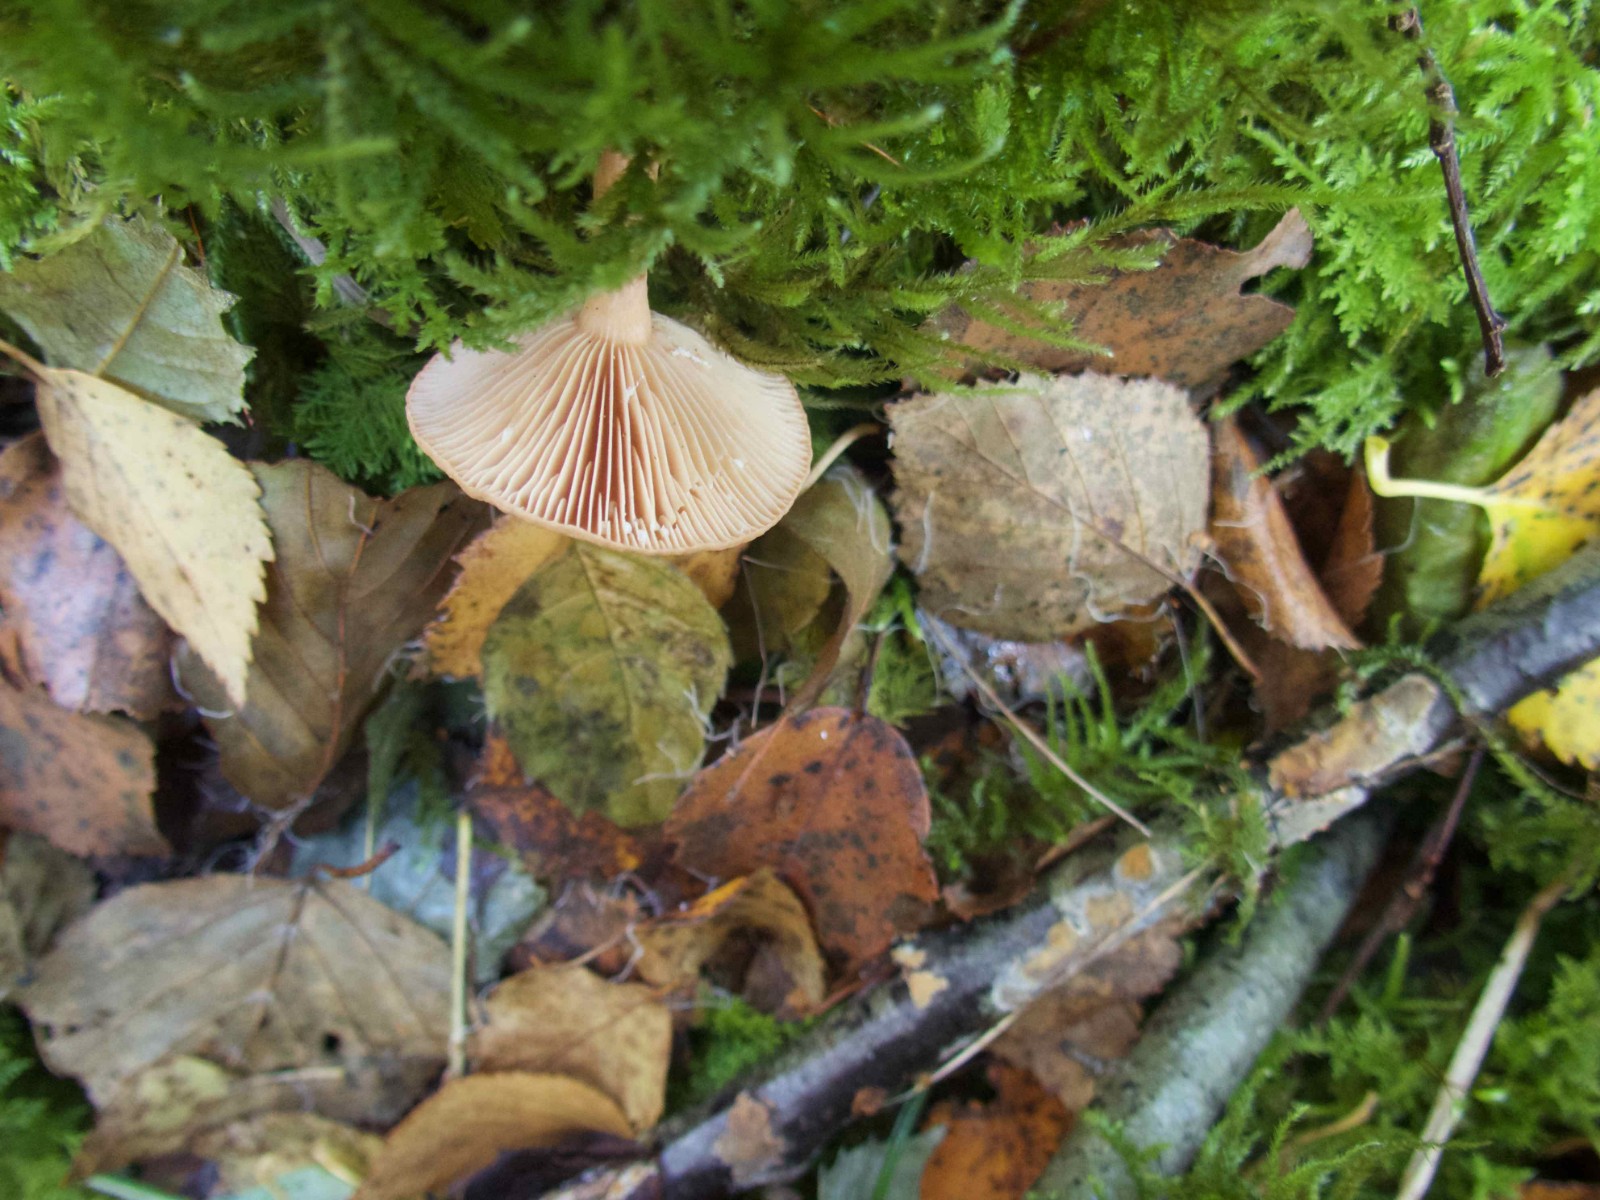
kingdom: Fungi
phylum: Basidiomycota
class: Agaricomycetes
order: Russulales
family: Russulaceae
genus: Lactarius
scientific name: Lactarius tabidus
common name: rynket mælkehat
